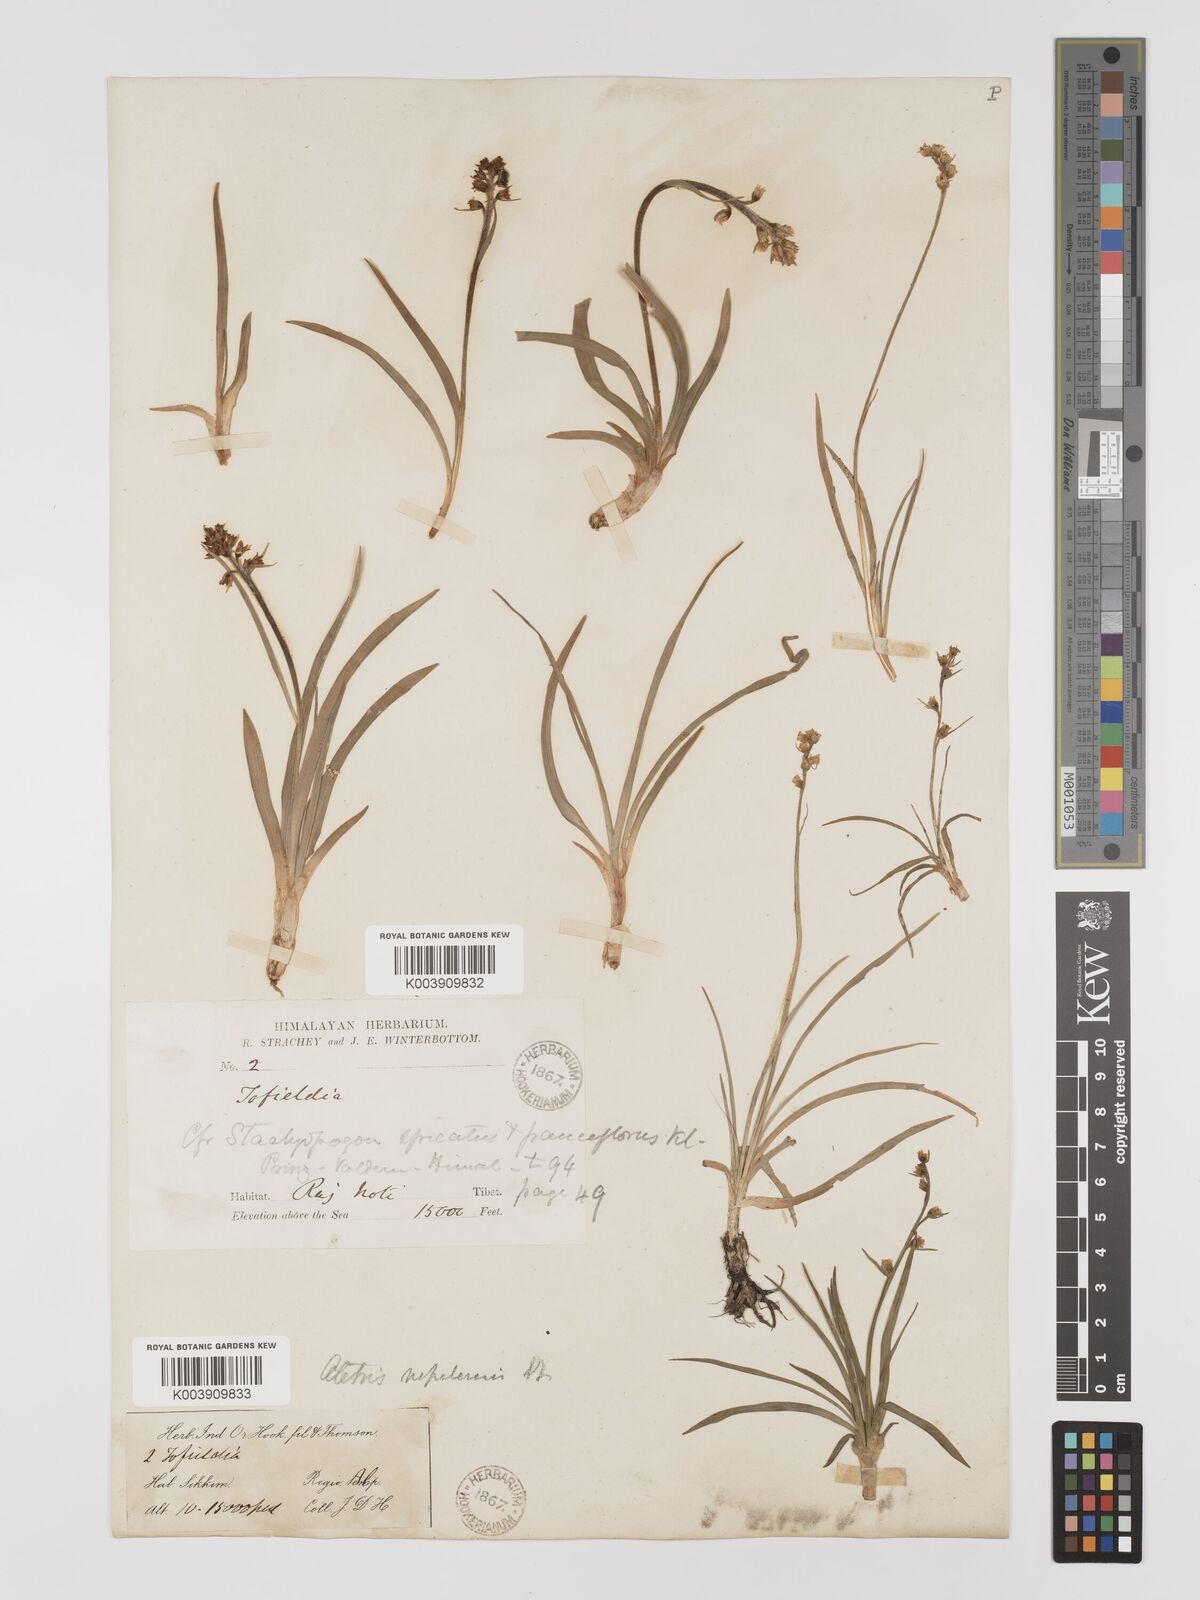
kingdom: Plantae
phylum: Tracheophyta
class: Liliopsida
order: Dioscoreales
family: Nartheciaceae
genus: Aletris
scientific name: Aletris pauciflora
